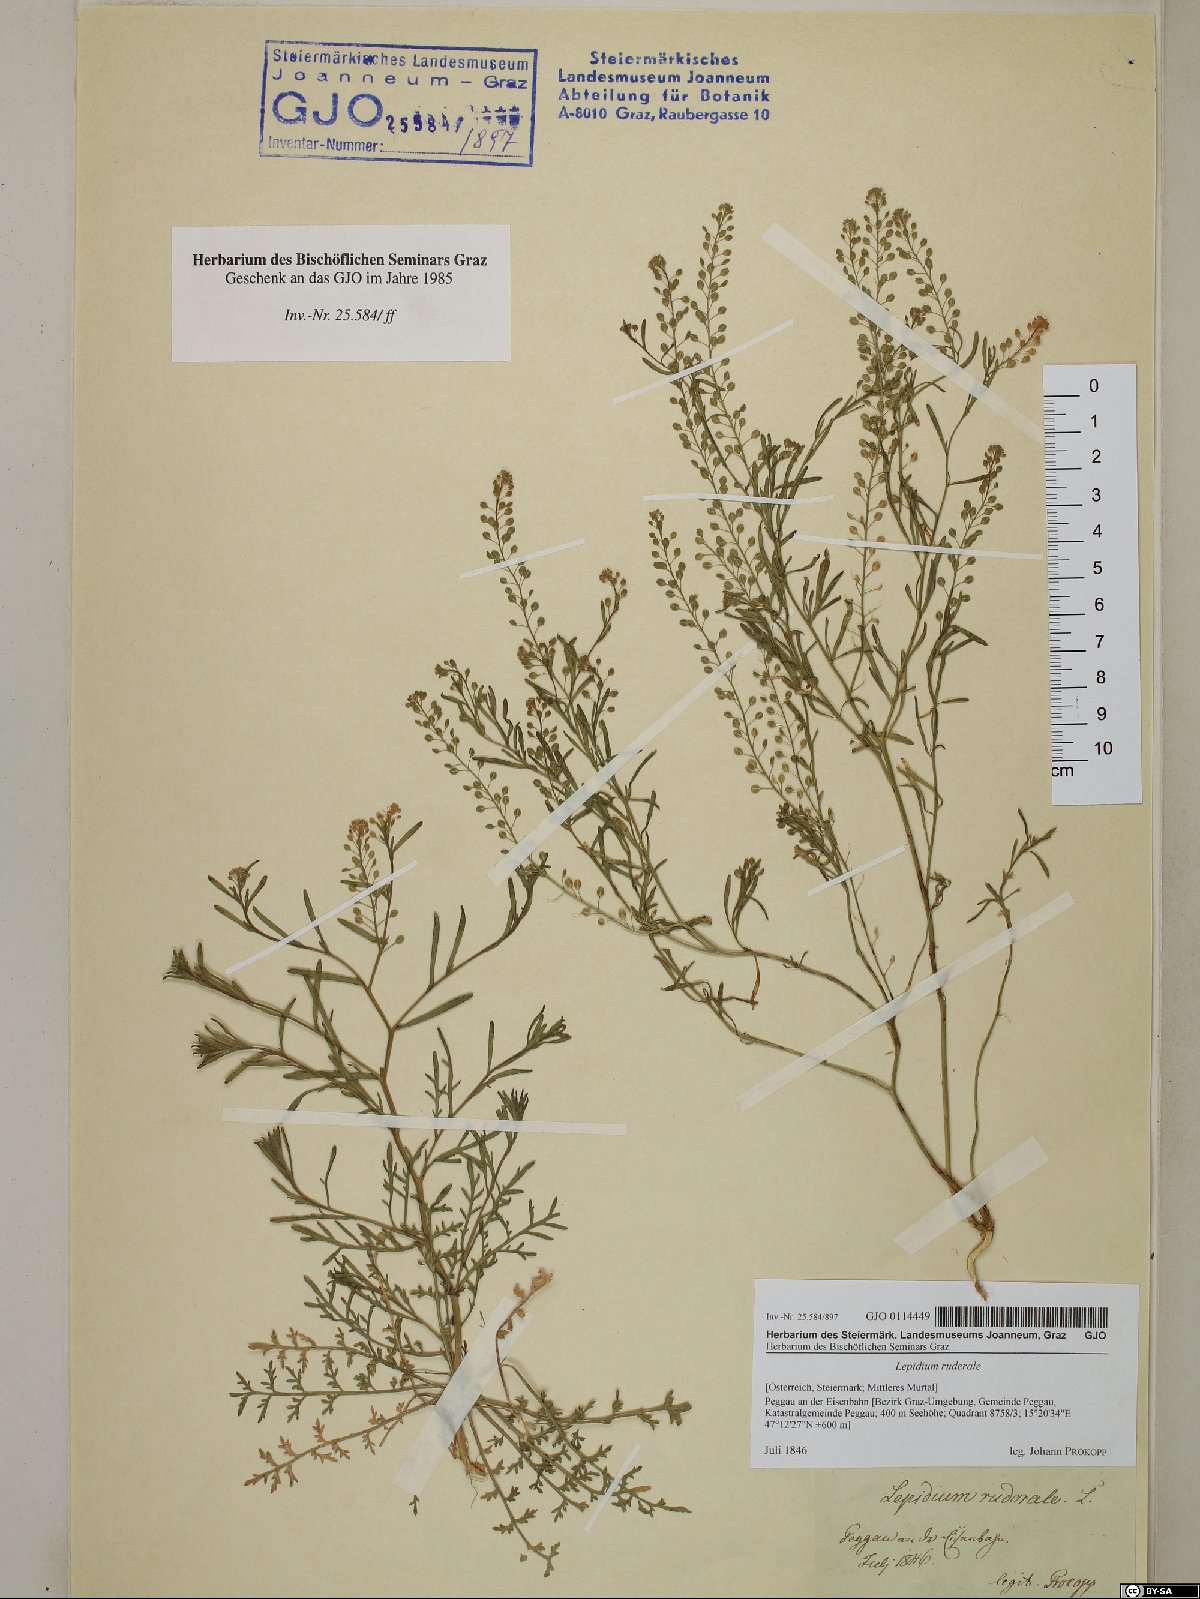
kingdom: Plantae
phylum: Tracheophyta
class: Magnoliopsida
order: Brassicales
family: Brassicaceae
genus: Lepidium
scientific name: Lepidium ruderale
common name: Narrow-leaved pepperwort
